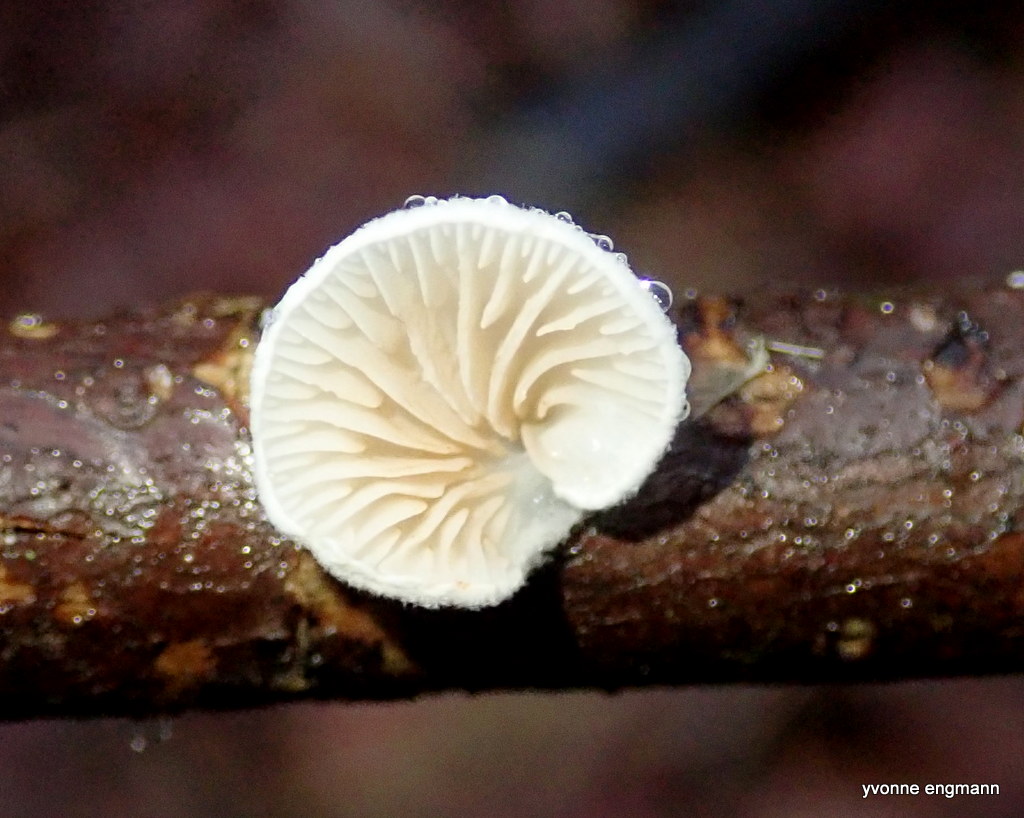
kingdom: Fungi
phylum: Basidiomycota
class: Agaricomycetes
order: Agaricales
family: Crepidotaceae
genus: Crepidotus
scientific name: Crepidotus
